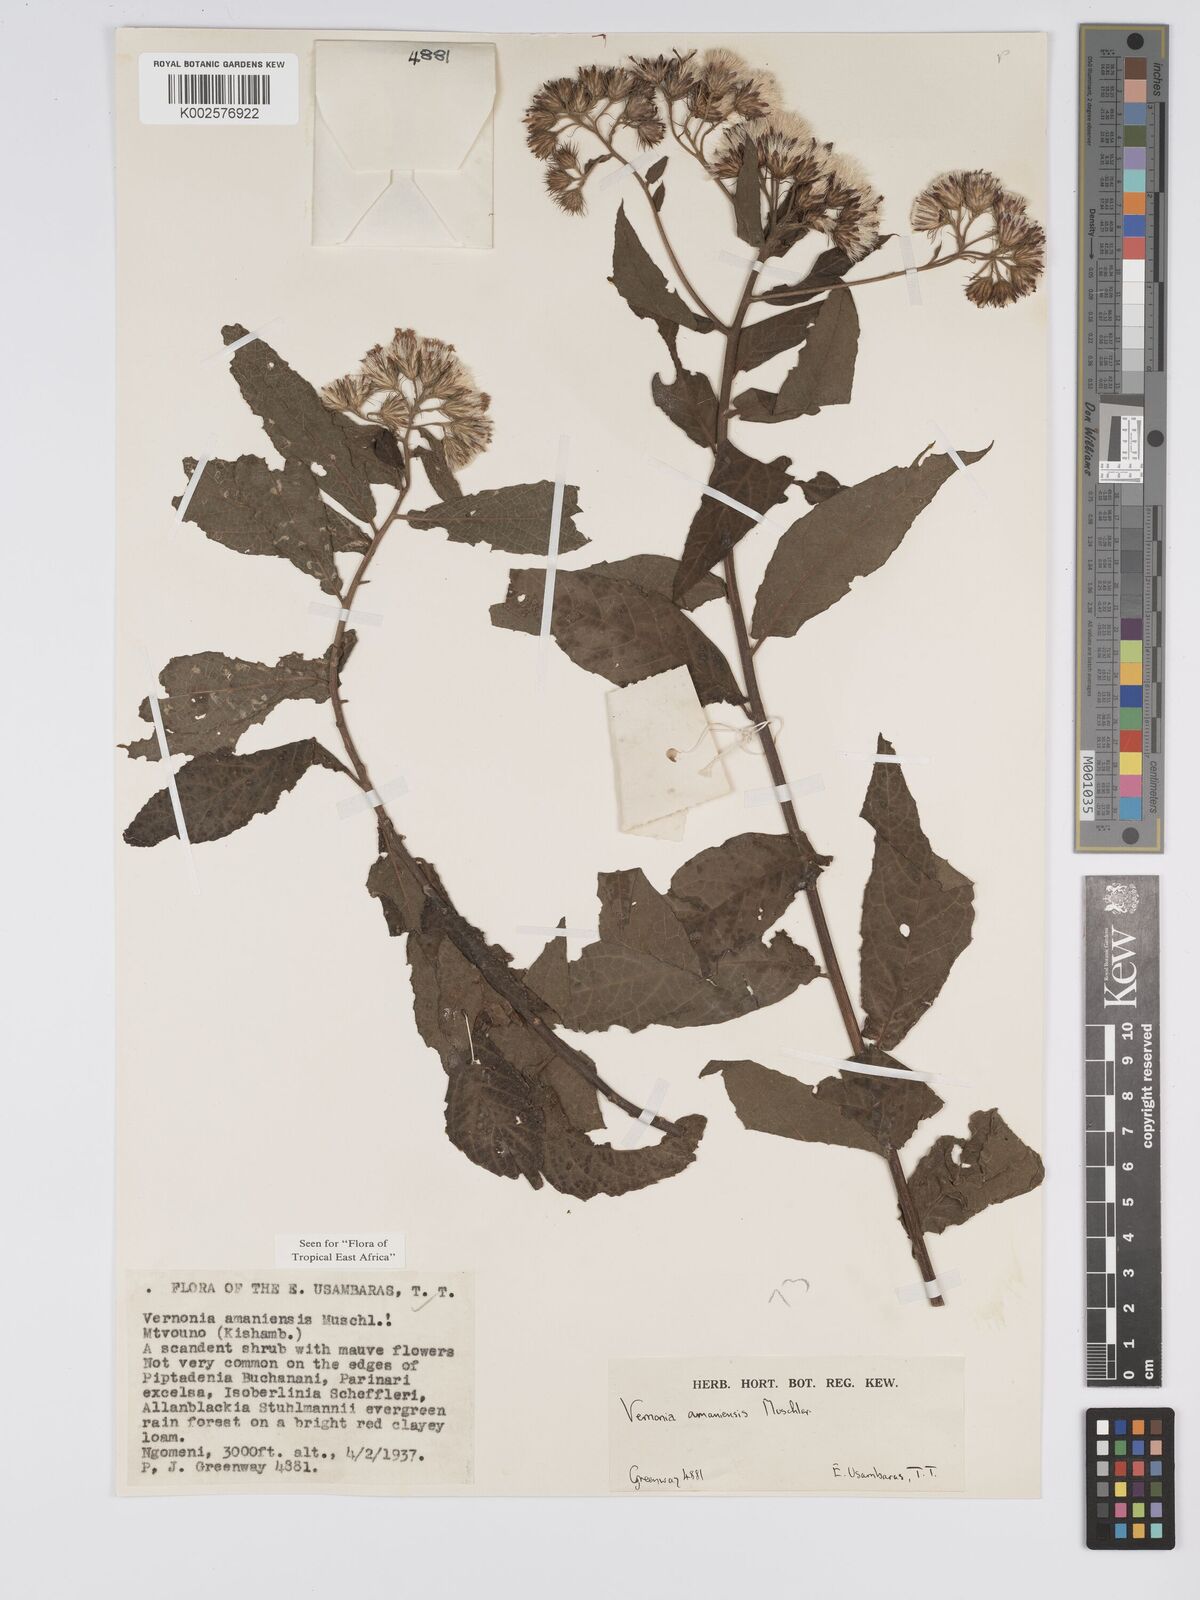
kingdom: Plantae
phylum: Tracheophyta
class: Magnoliopsida
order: Asterales
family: Asteraceae
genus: Jeffreycia
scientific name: Jeffreycia amaniensis
